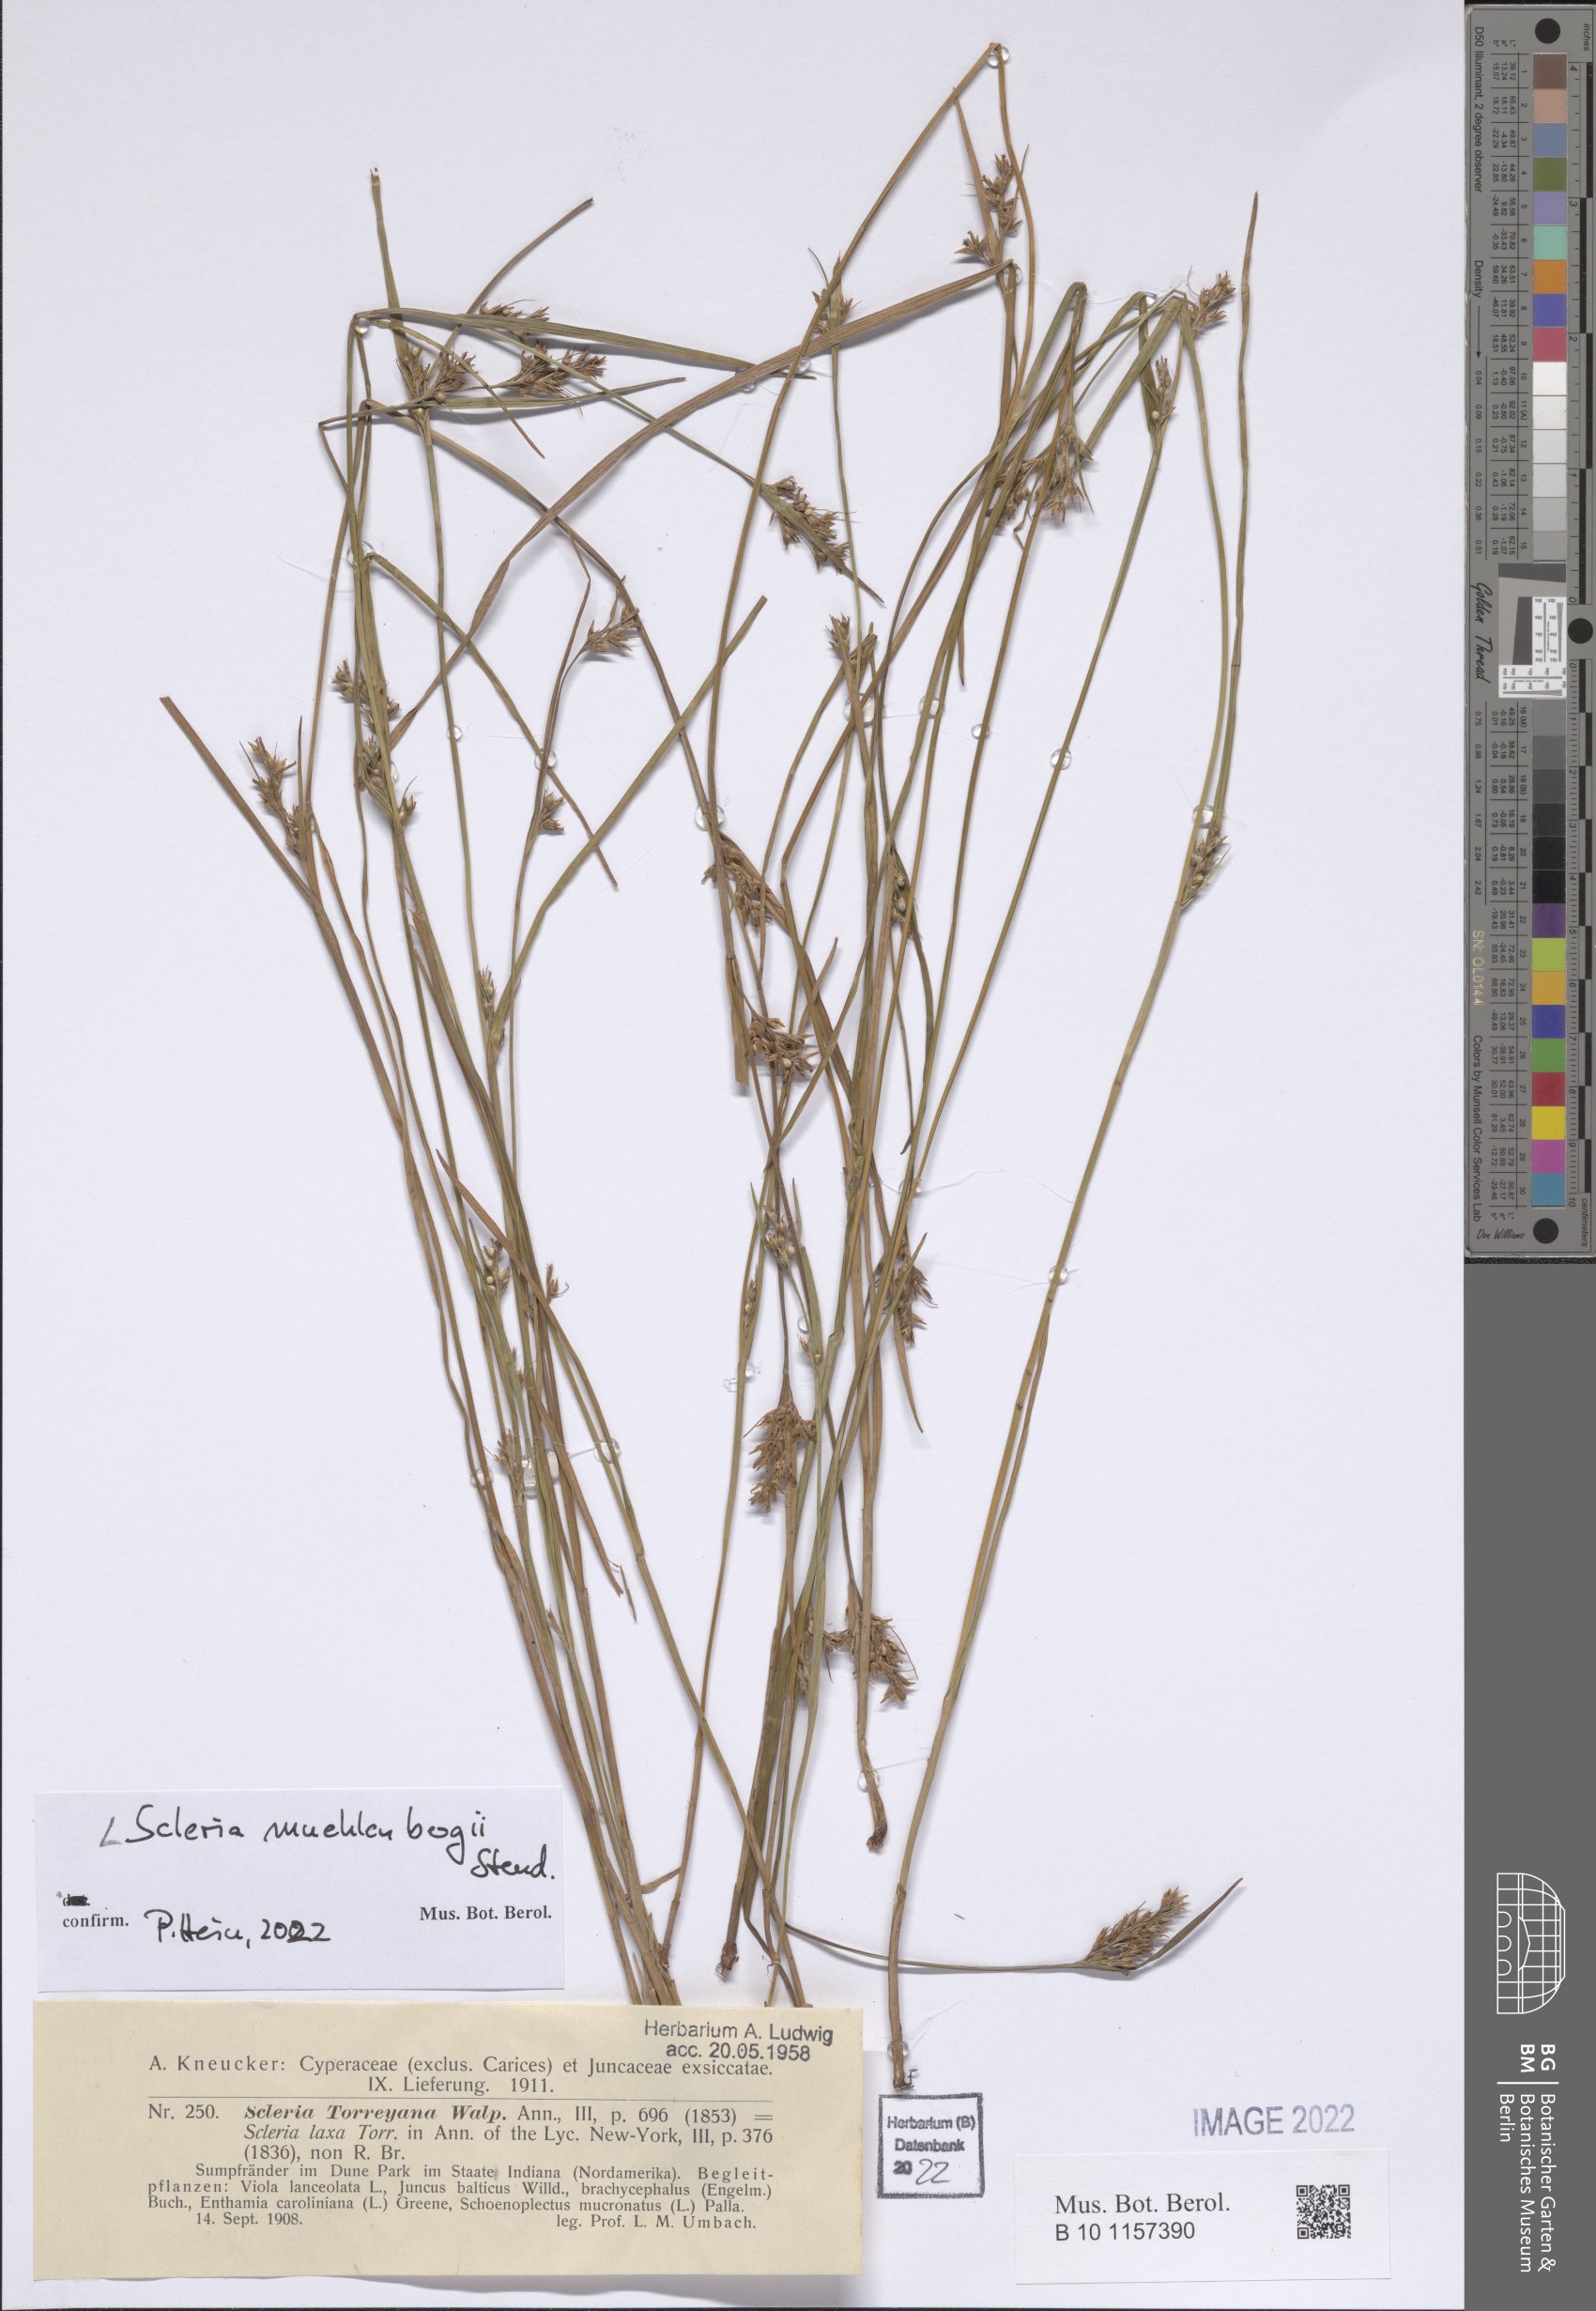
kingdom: Plantae
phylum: Tracheophyta
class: Liliopsida
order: Poales
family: Cyperaceae
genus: Scleria
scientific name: Scleria muehlenbergii
